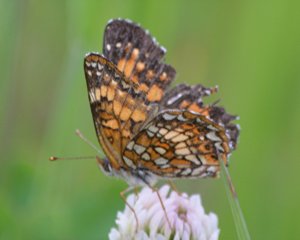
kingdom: Animalia
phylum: Arthropoda
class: Insecta
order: Lepidoptera
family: Nymphalidae
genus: Chlosyne
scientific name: Chlosyne harrisii
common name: Harris's Checkerspot
